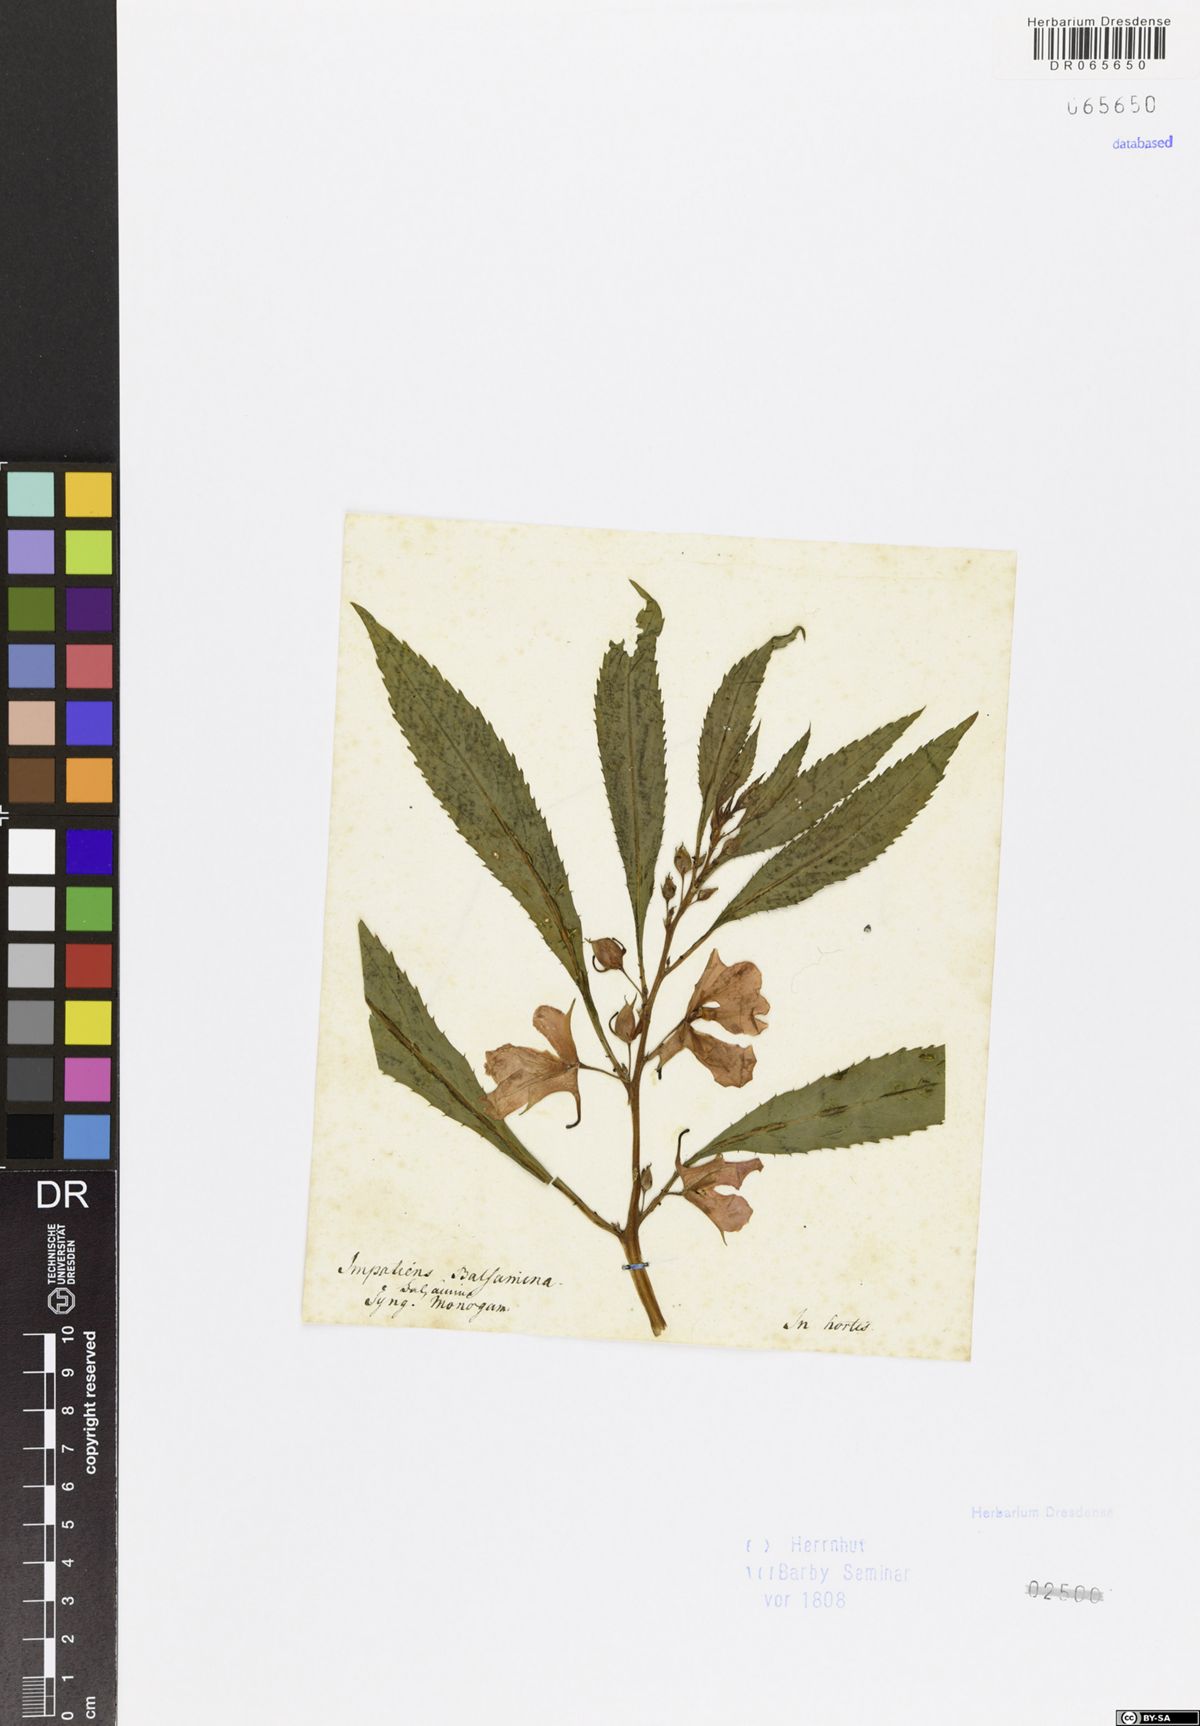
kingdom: Plantae
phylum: Tracheophyta
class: Magnoliopsida
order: Ericales
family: Balsaminaceae
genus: Impatiens
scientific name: Impatiens balsamina
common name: Balsam
